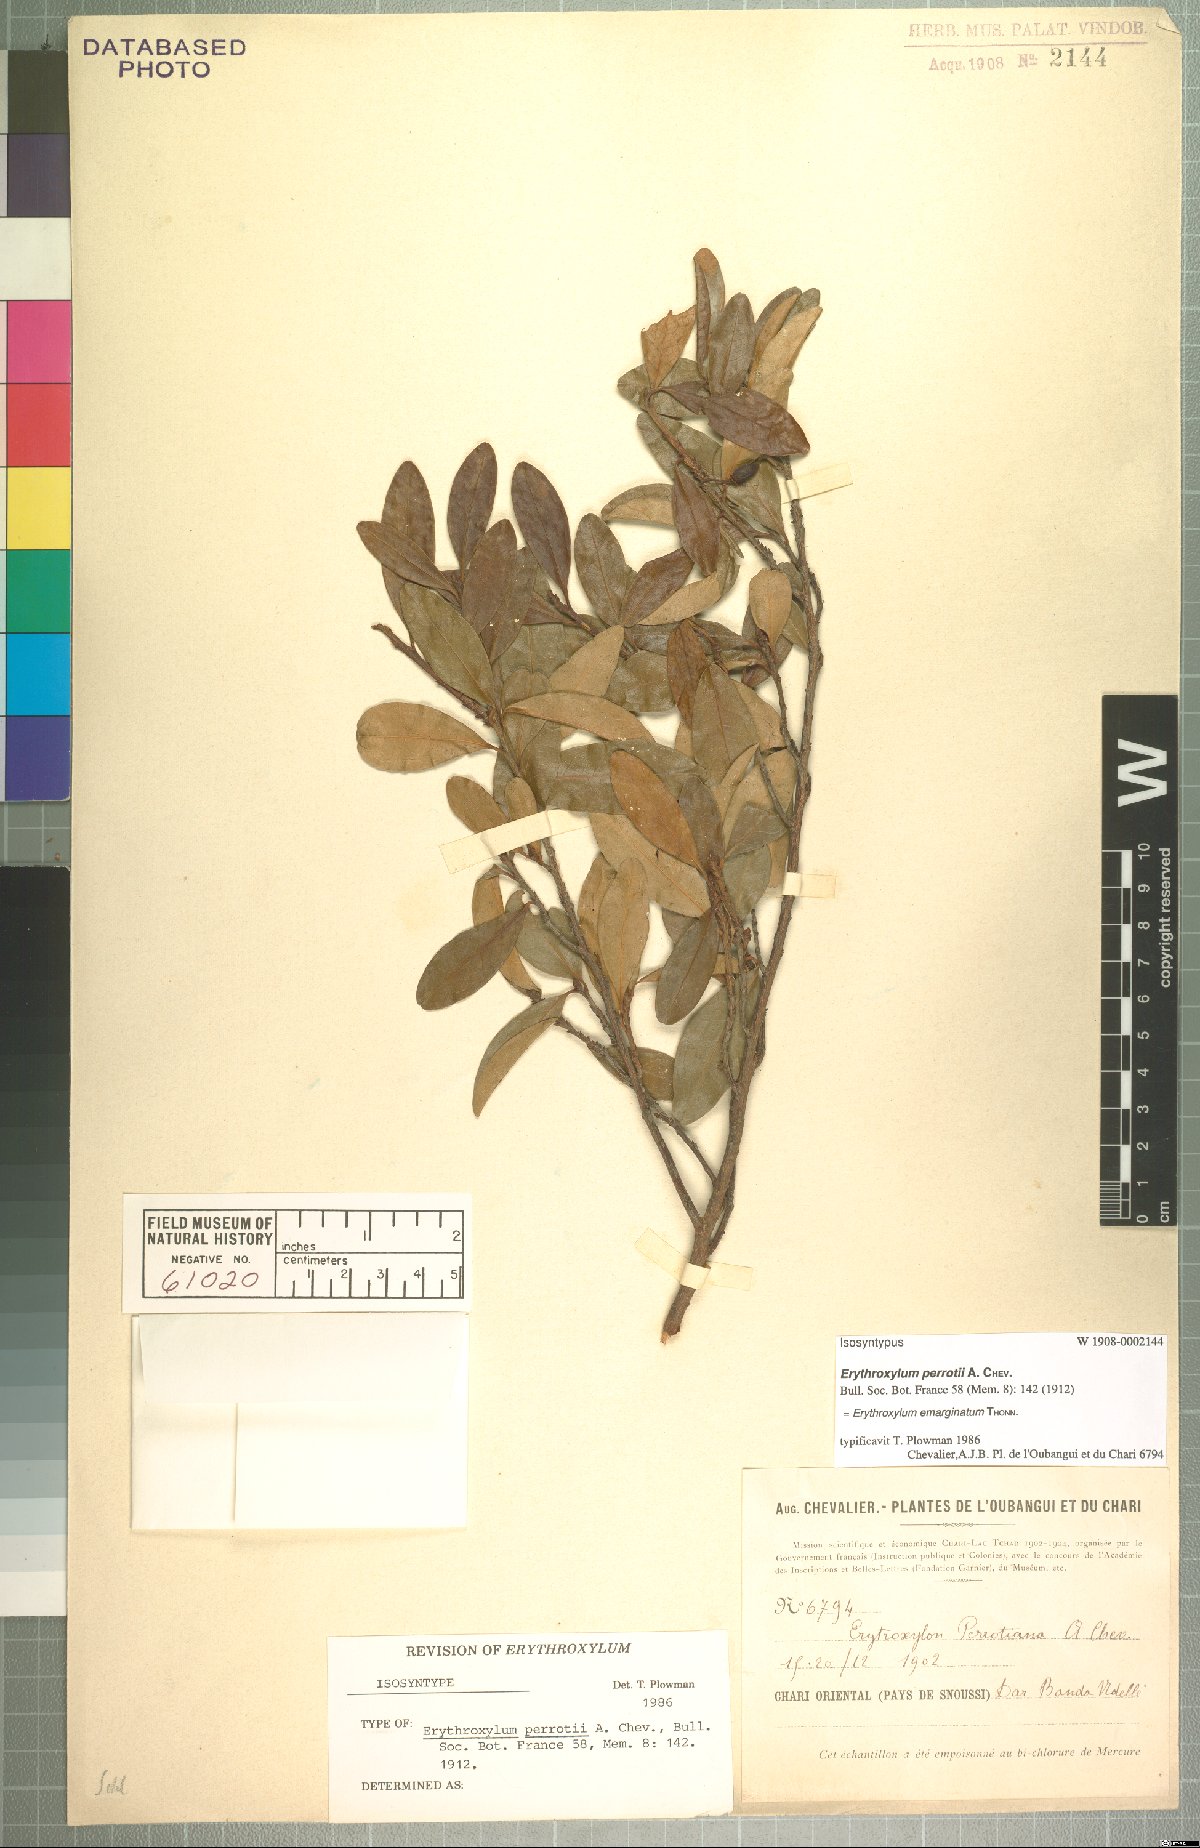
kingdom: Plantae
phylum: Tracheophyta
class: Magnoliopsida
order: Malpighiales
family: Erythroxylaceae
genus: Erythroxylum
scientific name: Erythroxylum emarginatum
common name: African coca-tree
